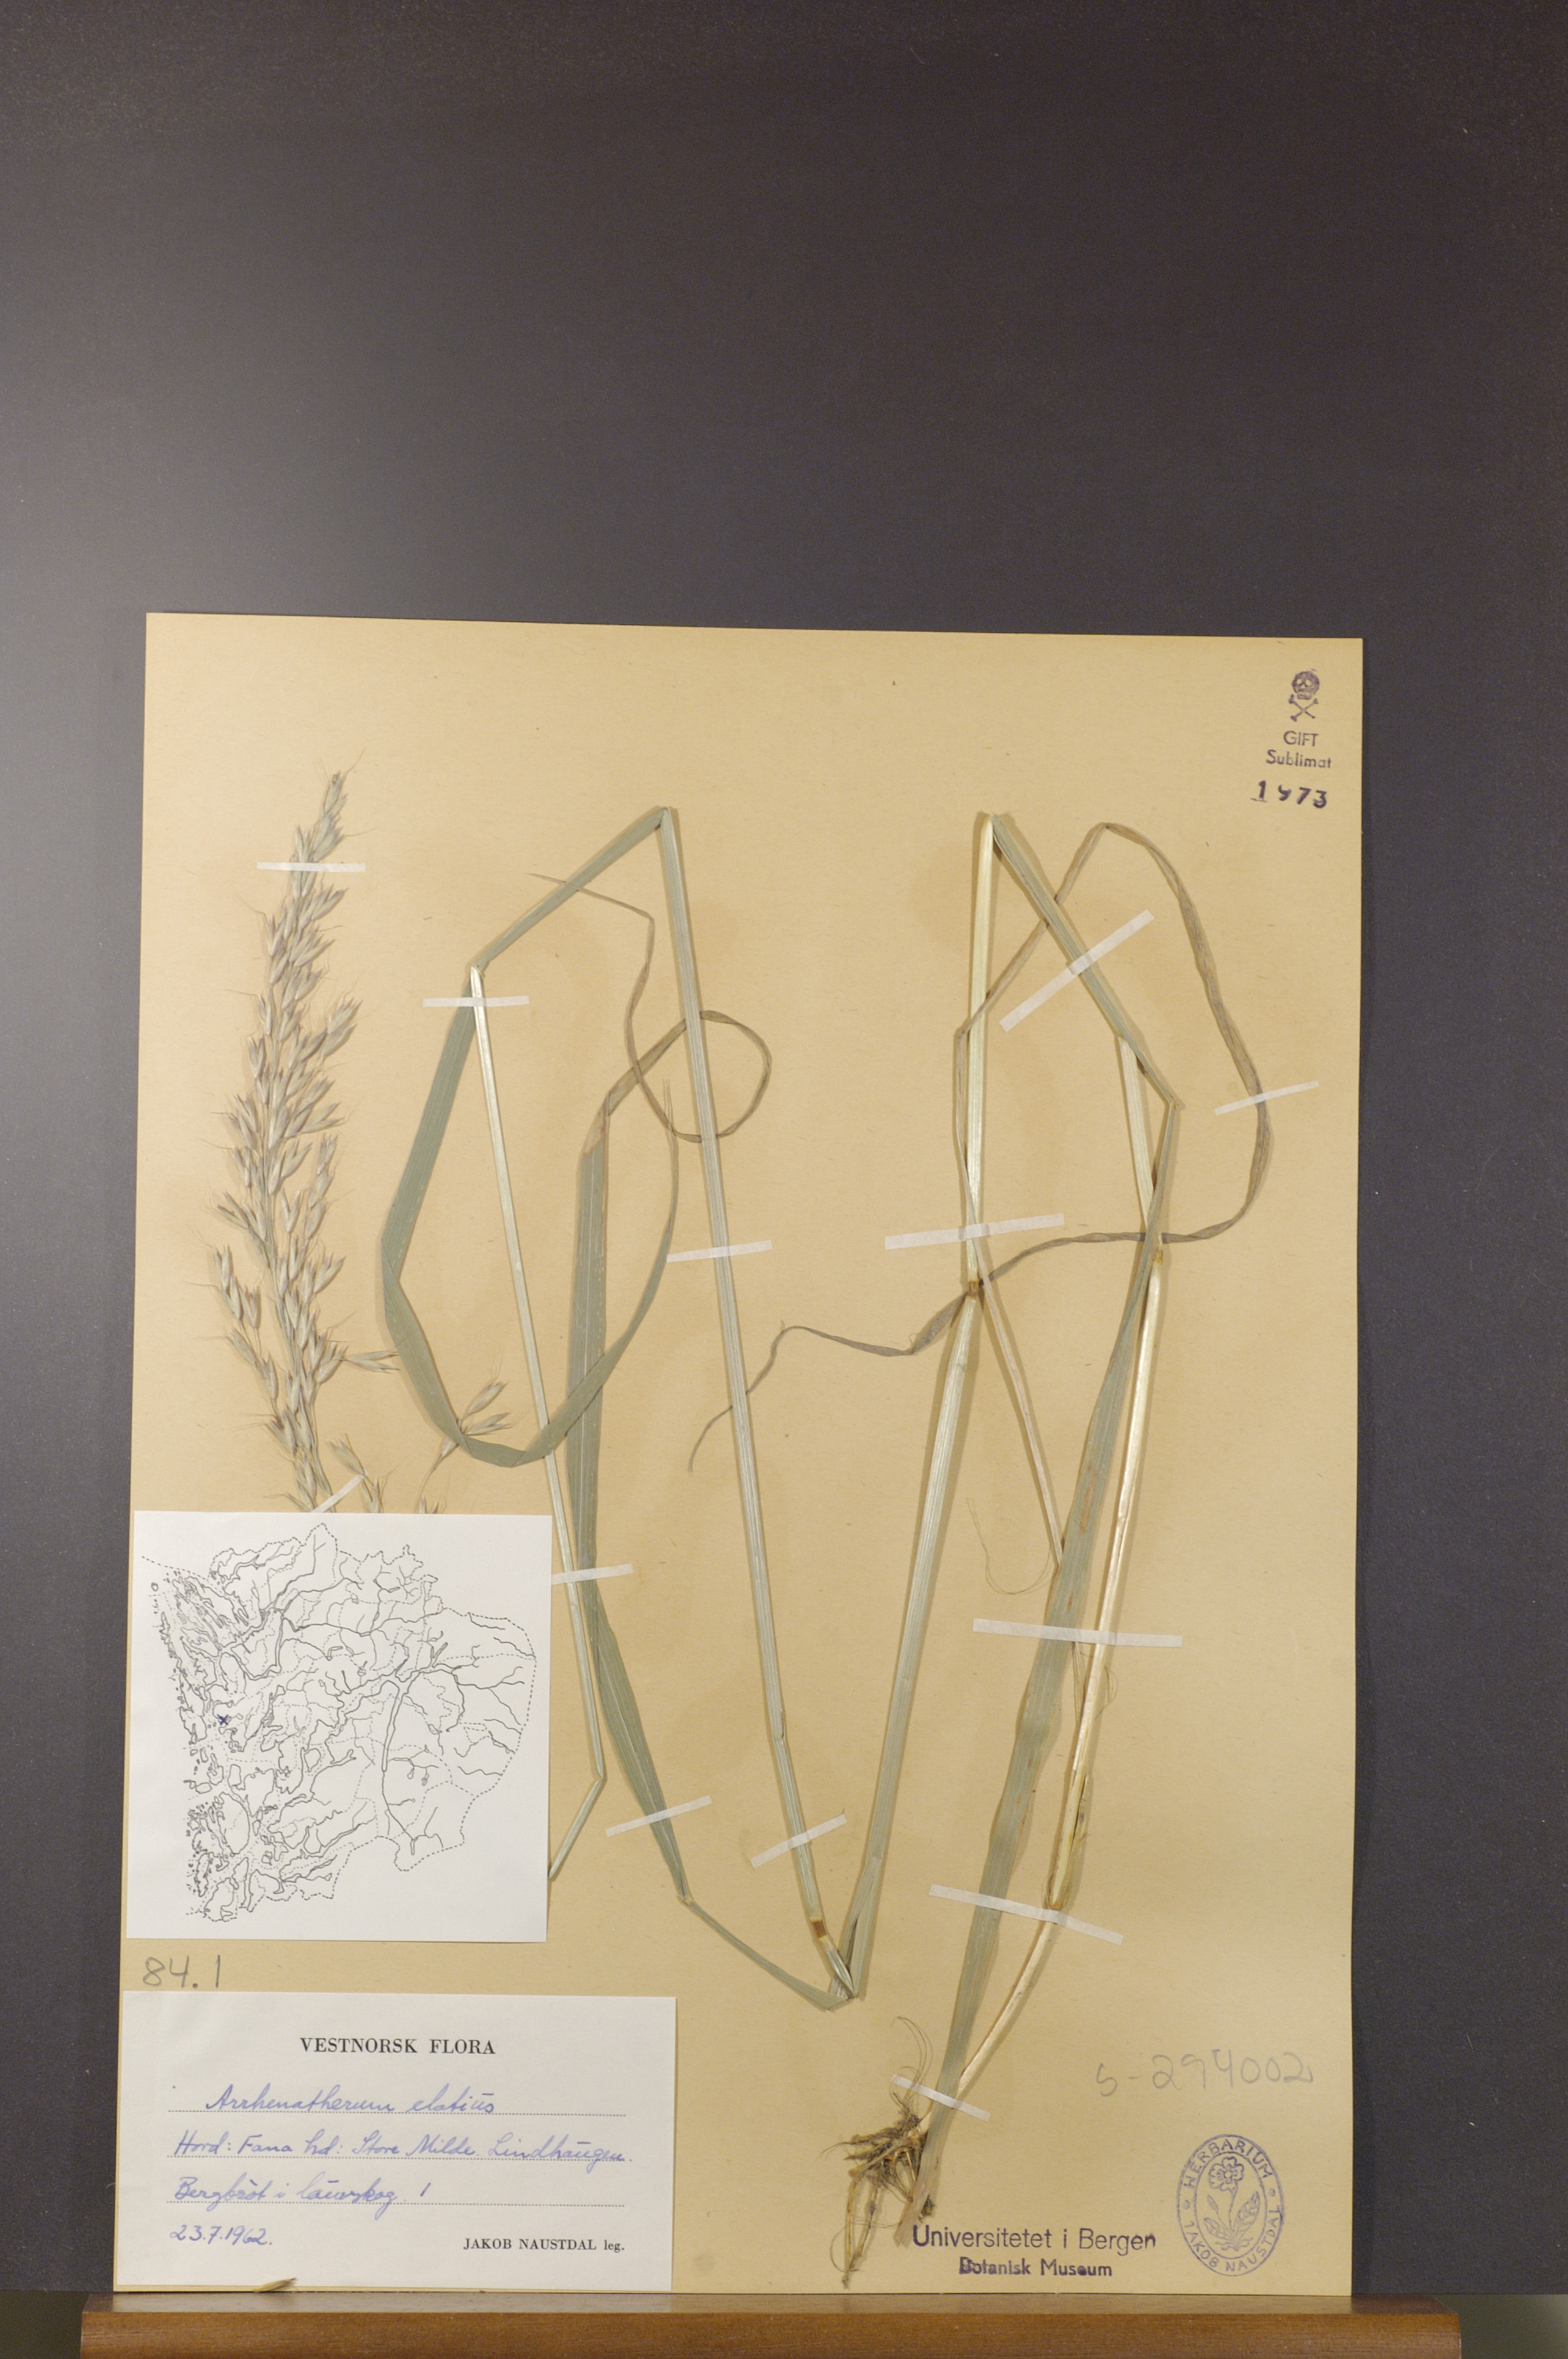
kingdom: Plantae
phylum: Tracheophyta
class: Liliopsida
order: Poales
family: Poaceae
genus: Arrhenatherum
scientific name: Arrhenatherum elatius
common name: Tall oatgrass
